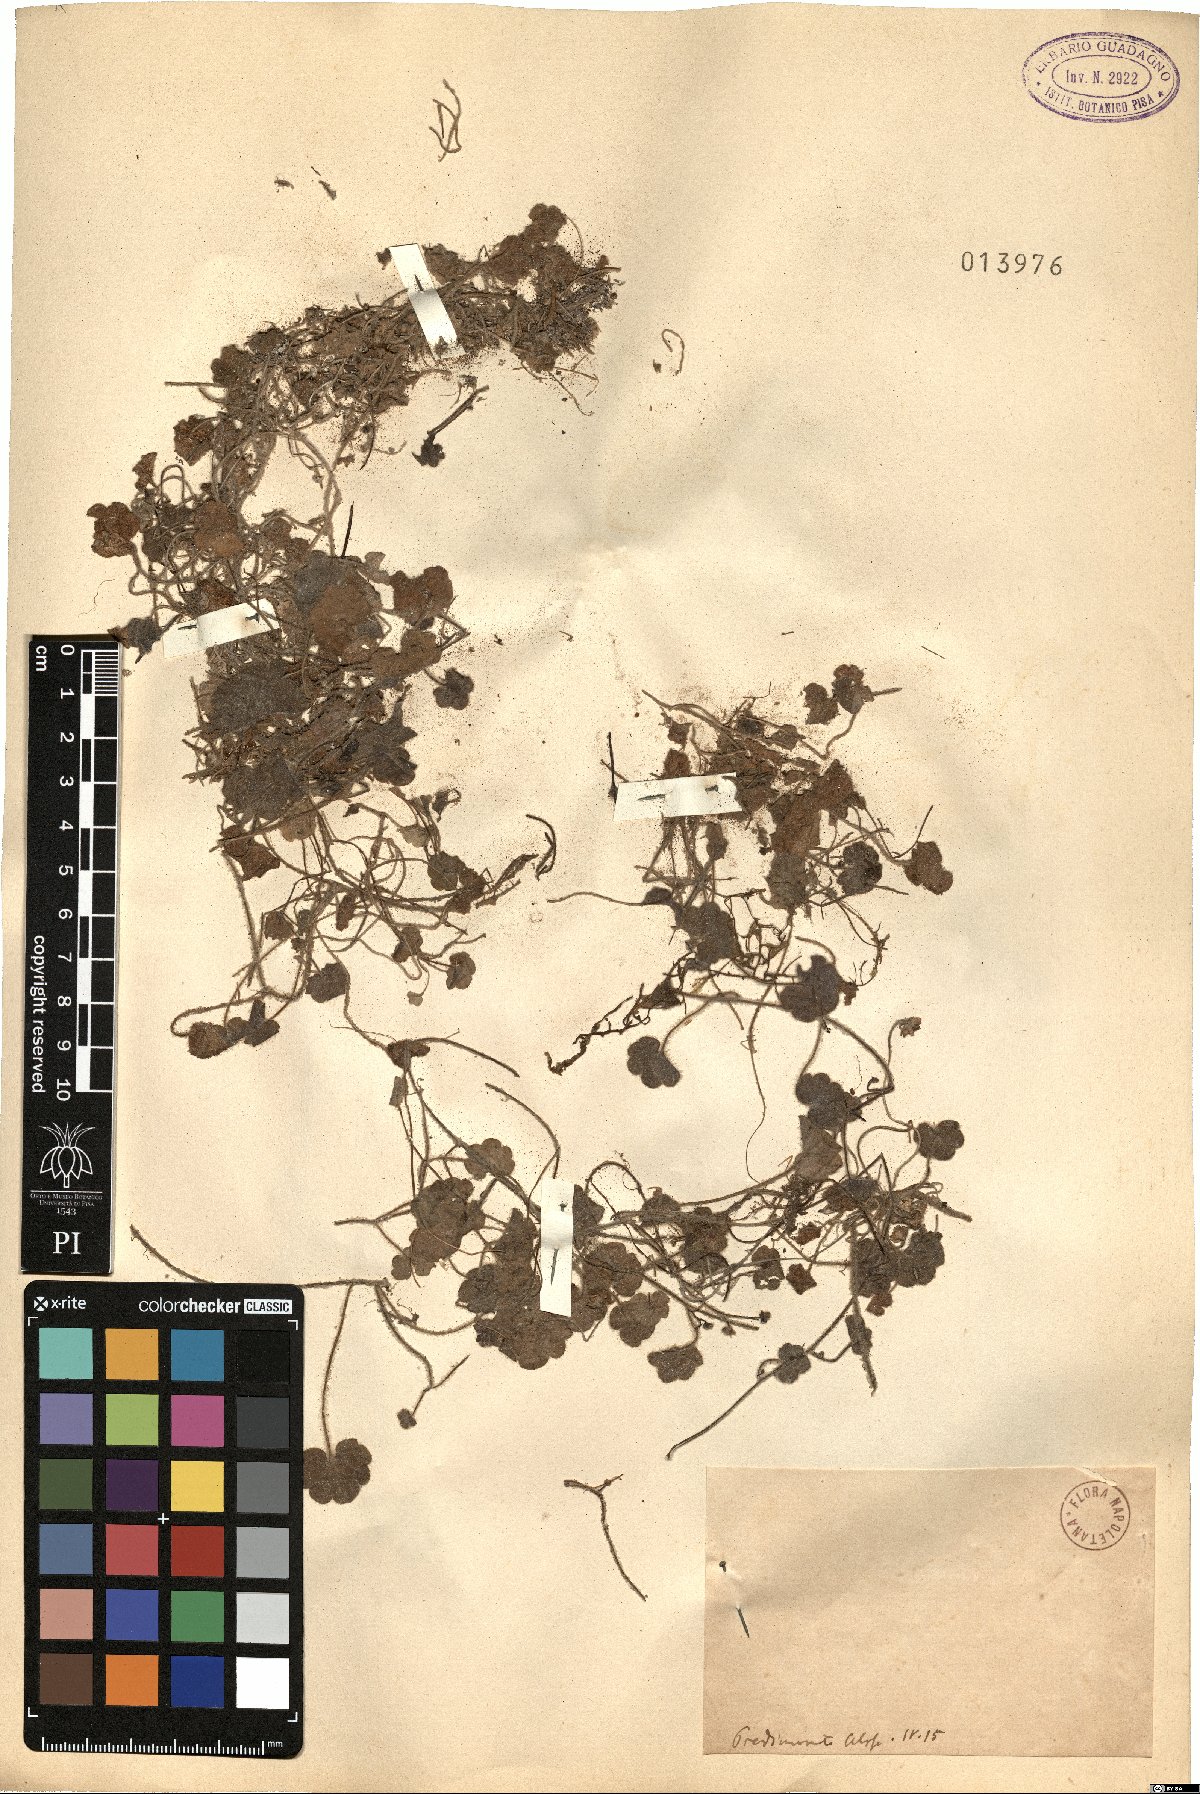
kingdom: Plantae
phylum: Tracheophyta
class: Magnoliopsida
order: Lamiales
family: Plantaginaceae
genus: Linaria
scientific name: Linaria
